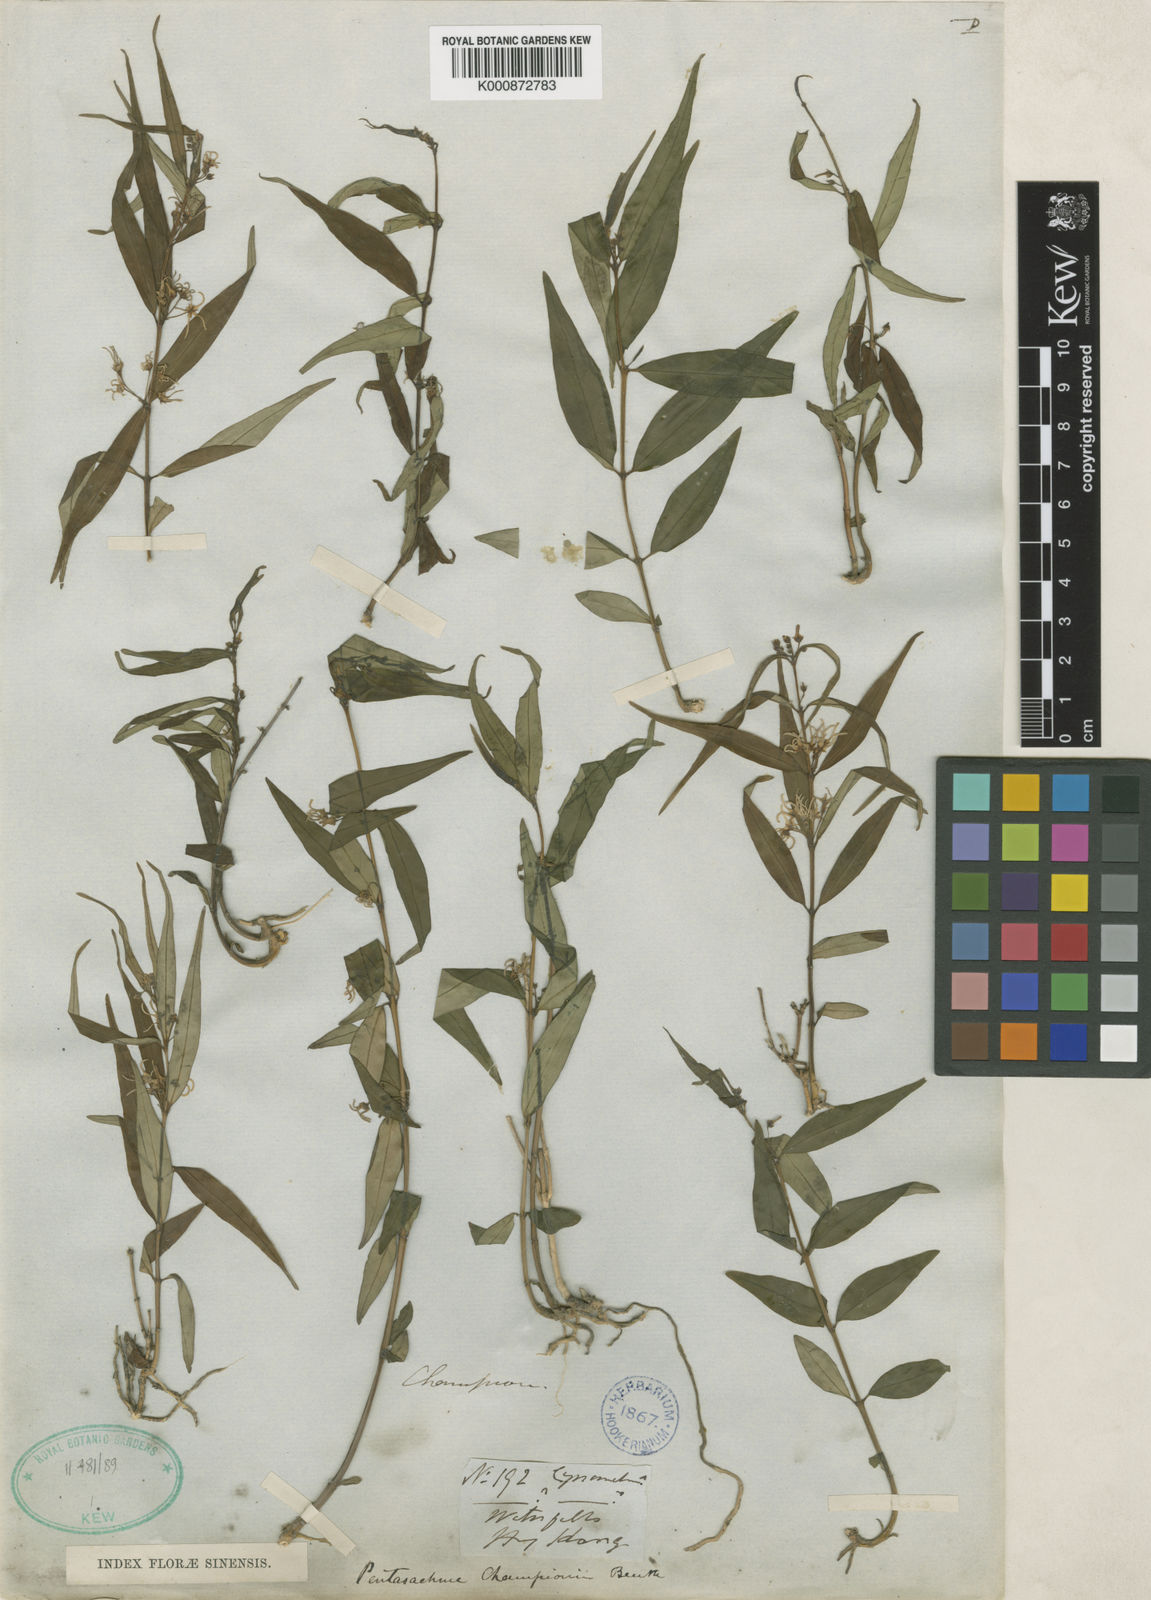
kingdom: Plantae
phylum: Tracheophyta
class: Magnoliopsida
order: Gentianales
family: Apocynaceae
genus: Pentasachme
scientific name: Pentasachme caudatum
